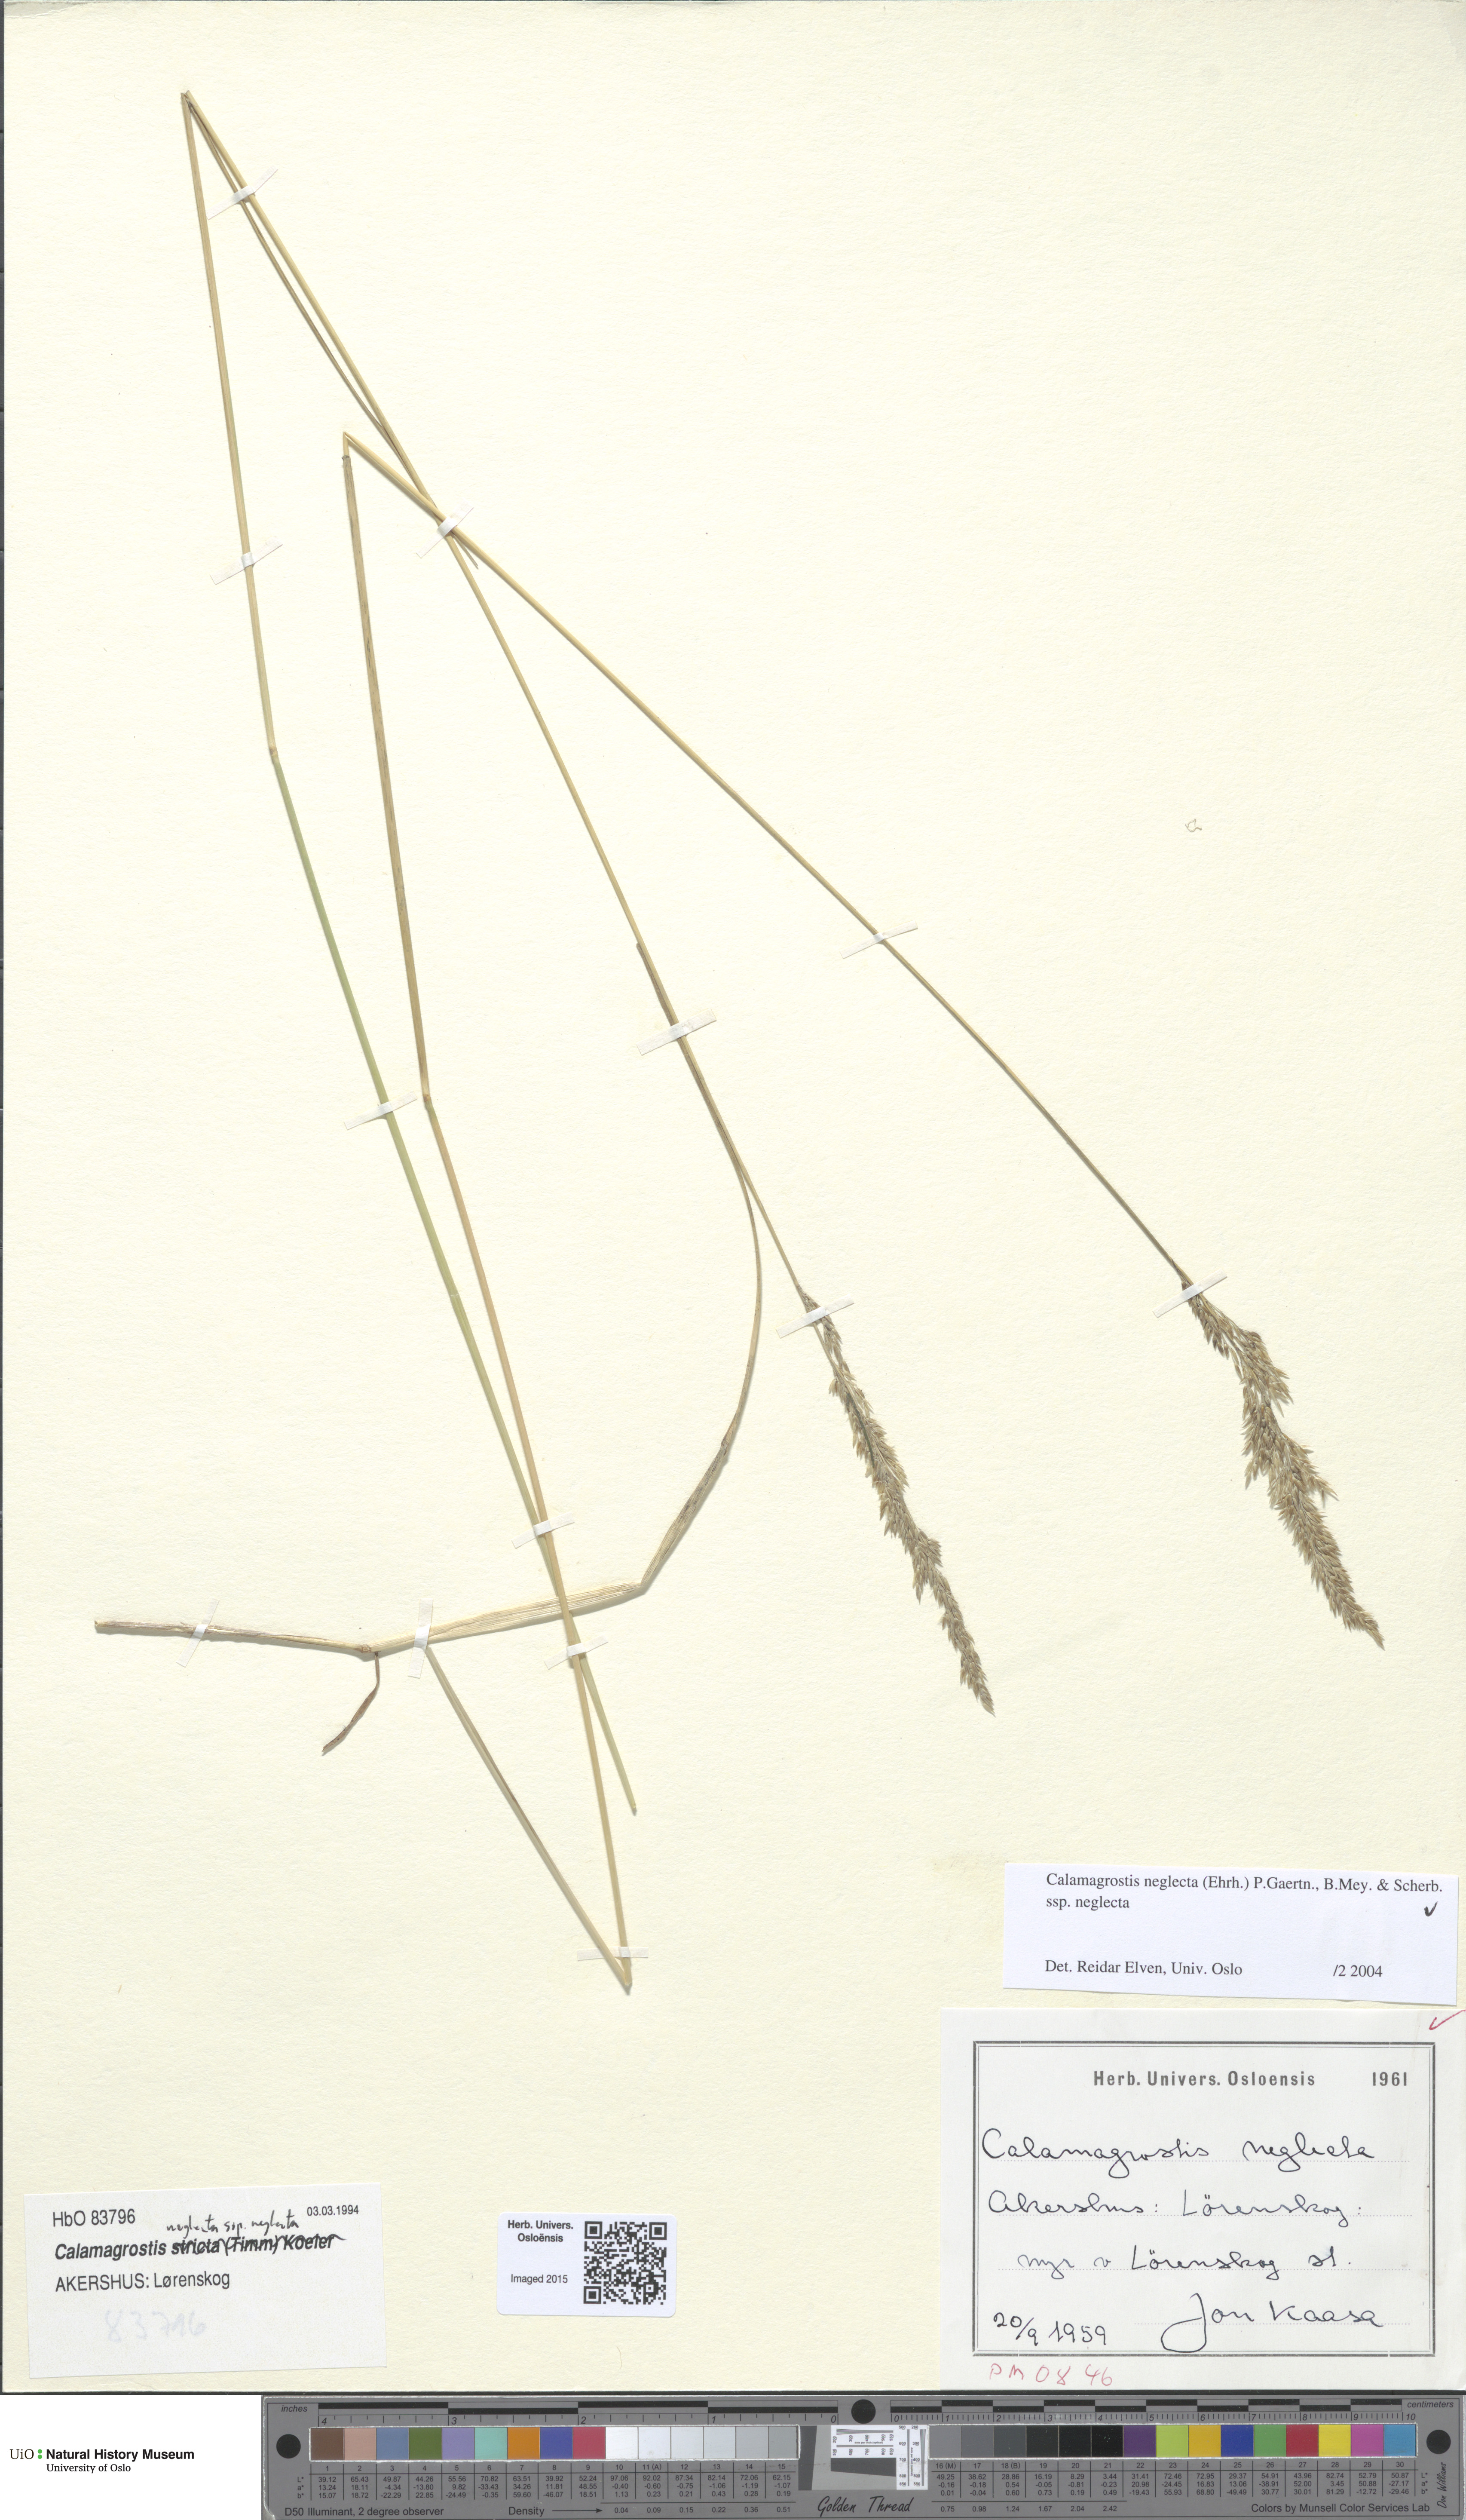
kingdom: Plantae
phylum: Tracheophyta
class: Liliopsida
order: Poales
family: Poaceae
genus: Achnatherum
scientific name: Achnatherum calamagrostis
